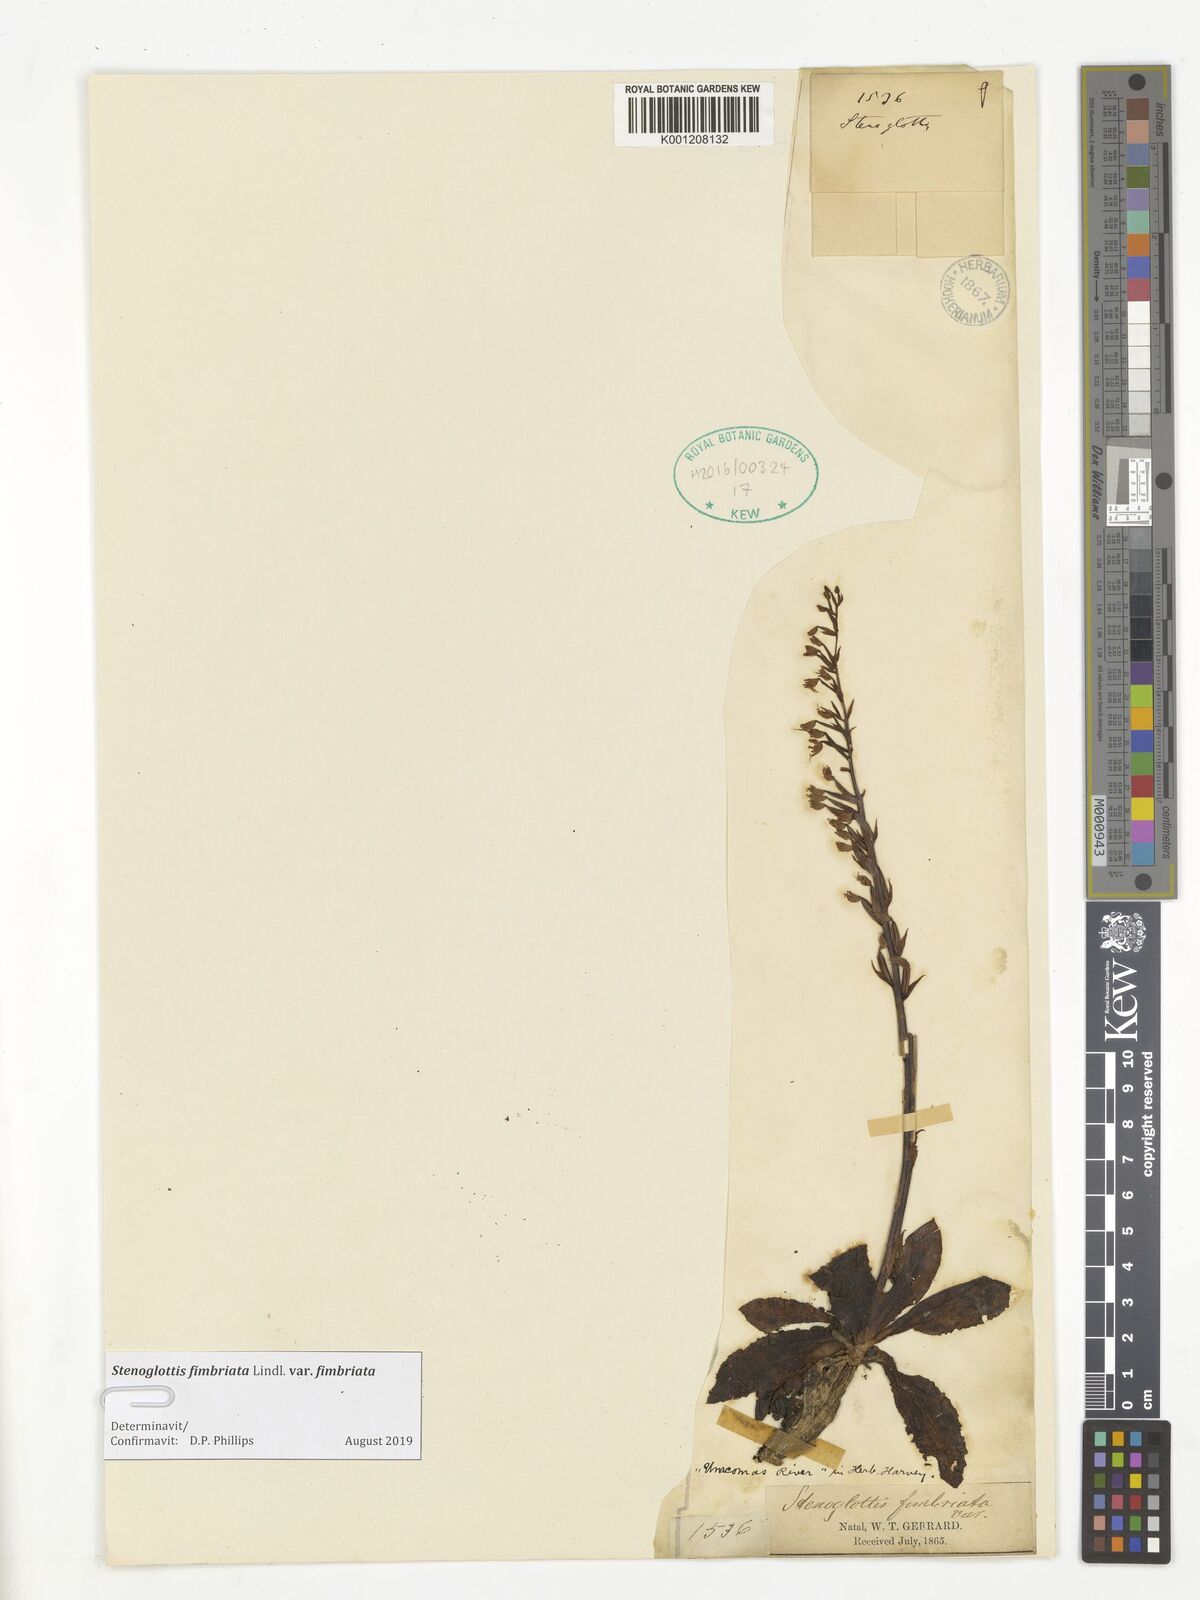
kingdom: Plantae
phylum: Tracheophyta
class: Liliopsida
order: Asparagales
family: Orchidaceae
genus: Stenoglottis
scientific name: Stenoglottis fimbriata
